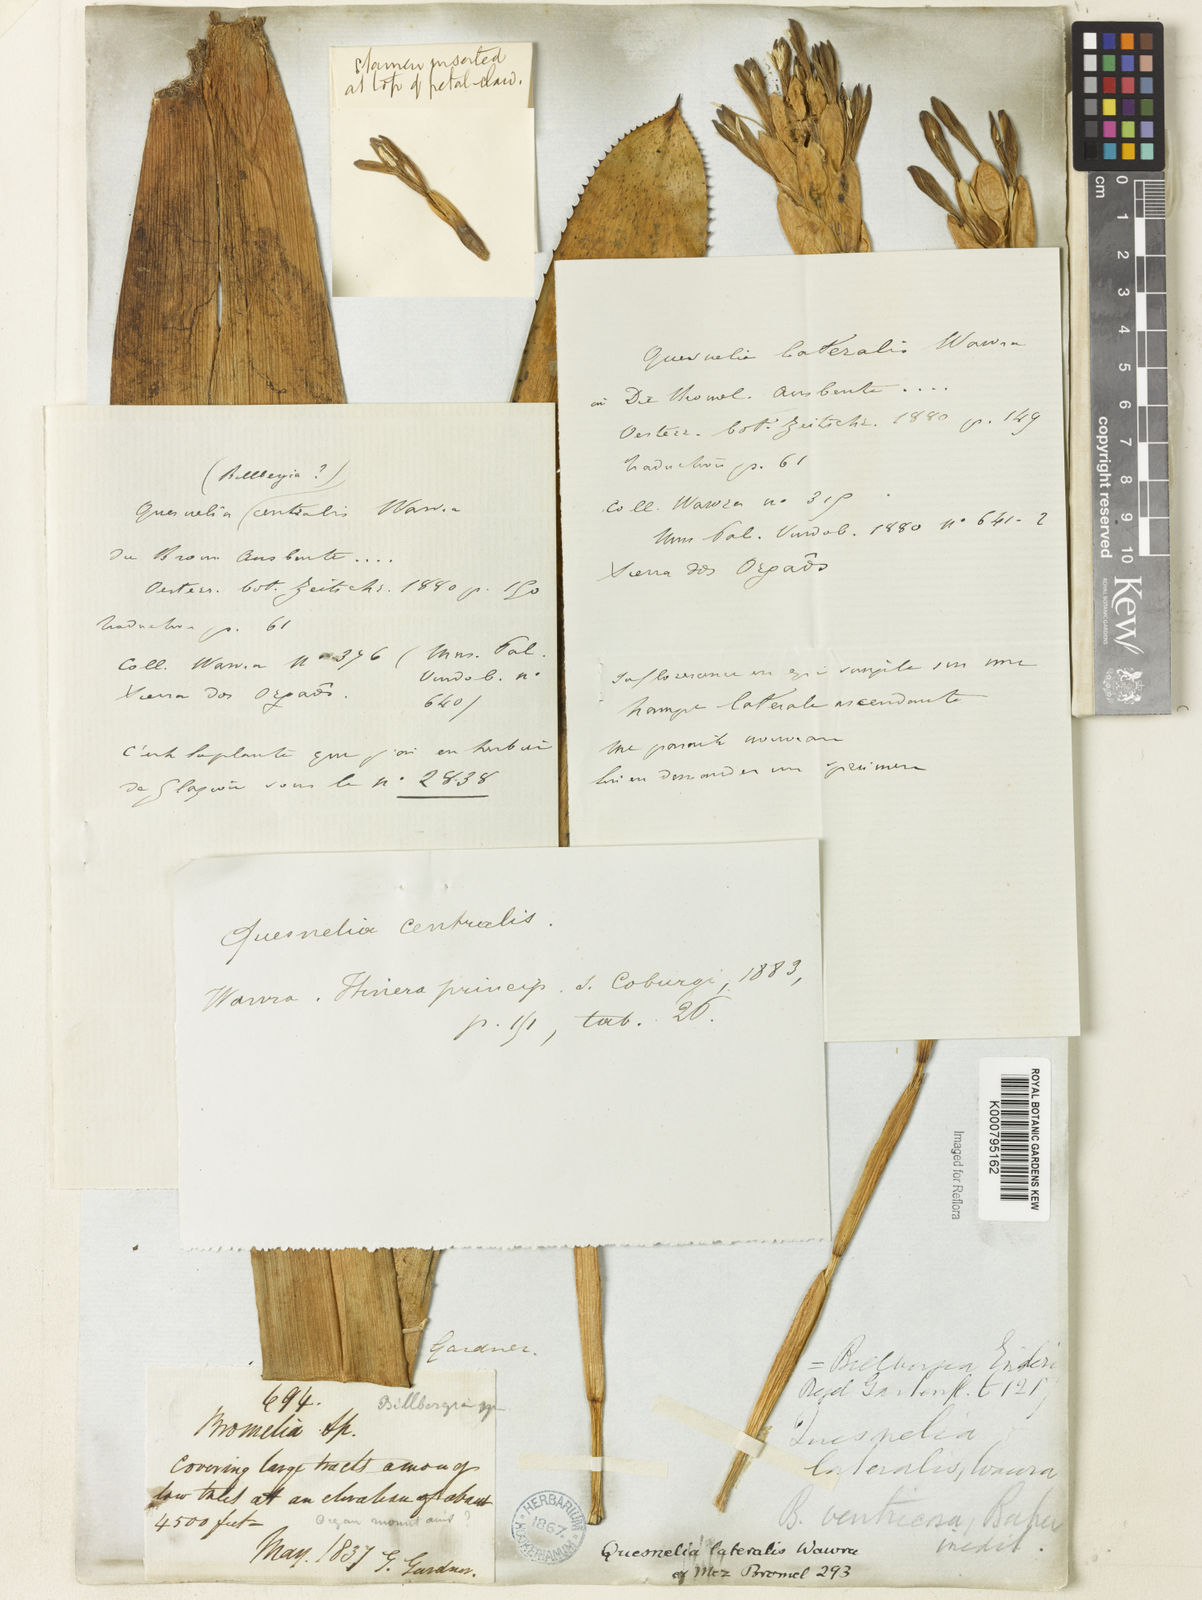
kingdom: Plantae
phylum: Tracheophyta
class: Liliopsida
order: Poales
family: Bromeliaceae
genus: Quesnelia
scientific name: Quesnelia lateralis
